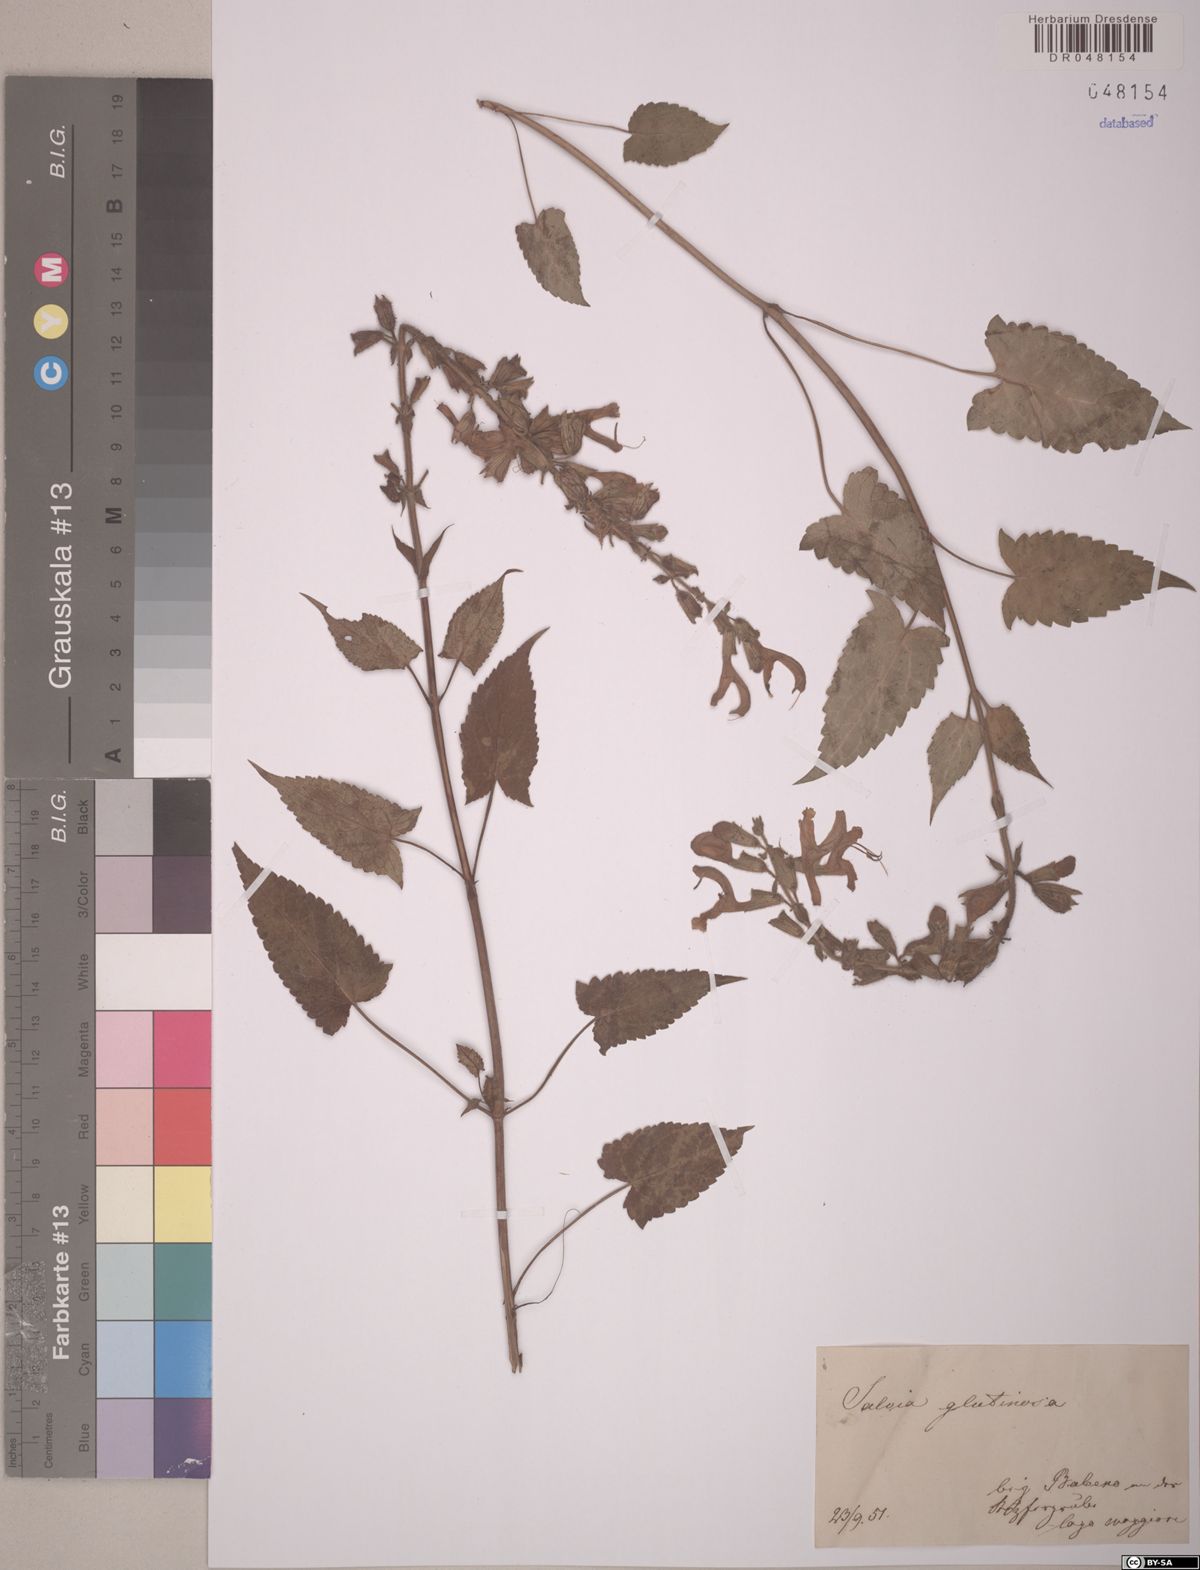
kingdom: Plantae
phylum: Tracheophyta
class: Magnoliopsida
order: Lamiales
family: Lamiaceae
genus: Salvia
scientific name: Salvia glutinosa
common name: Sticky clary
